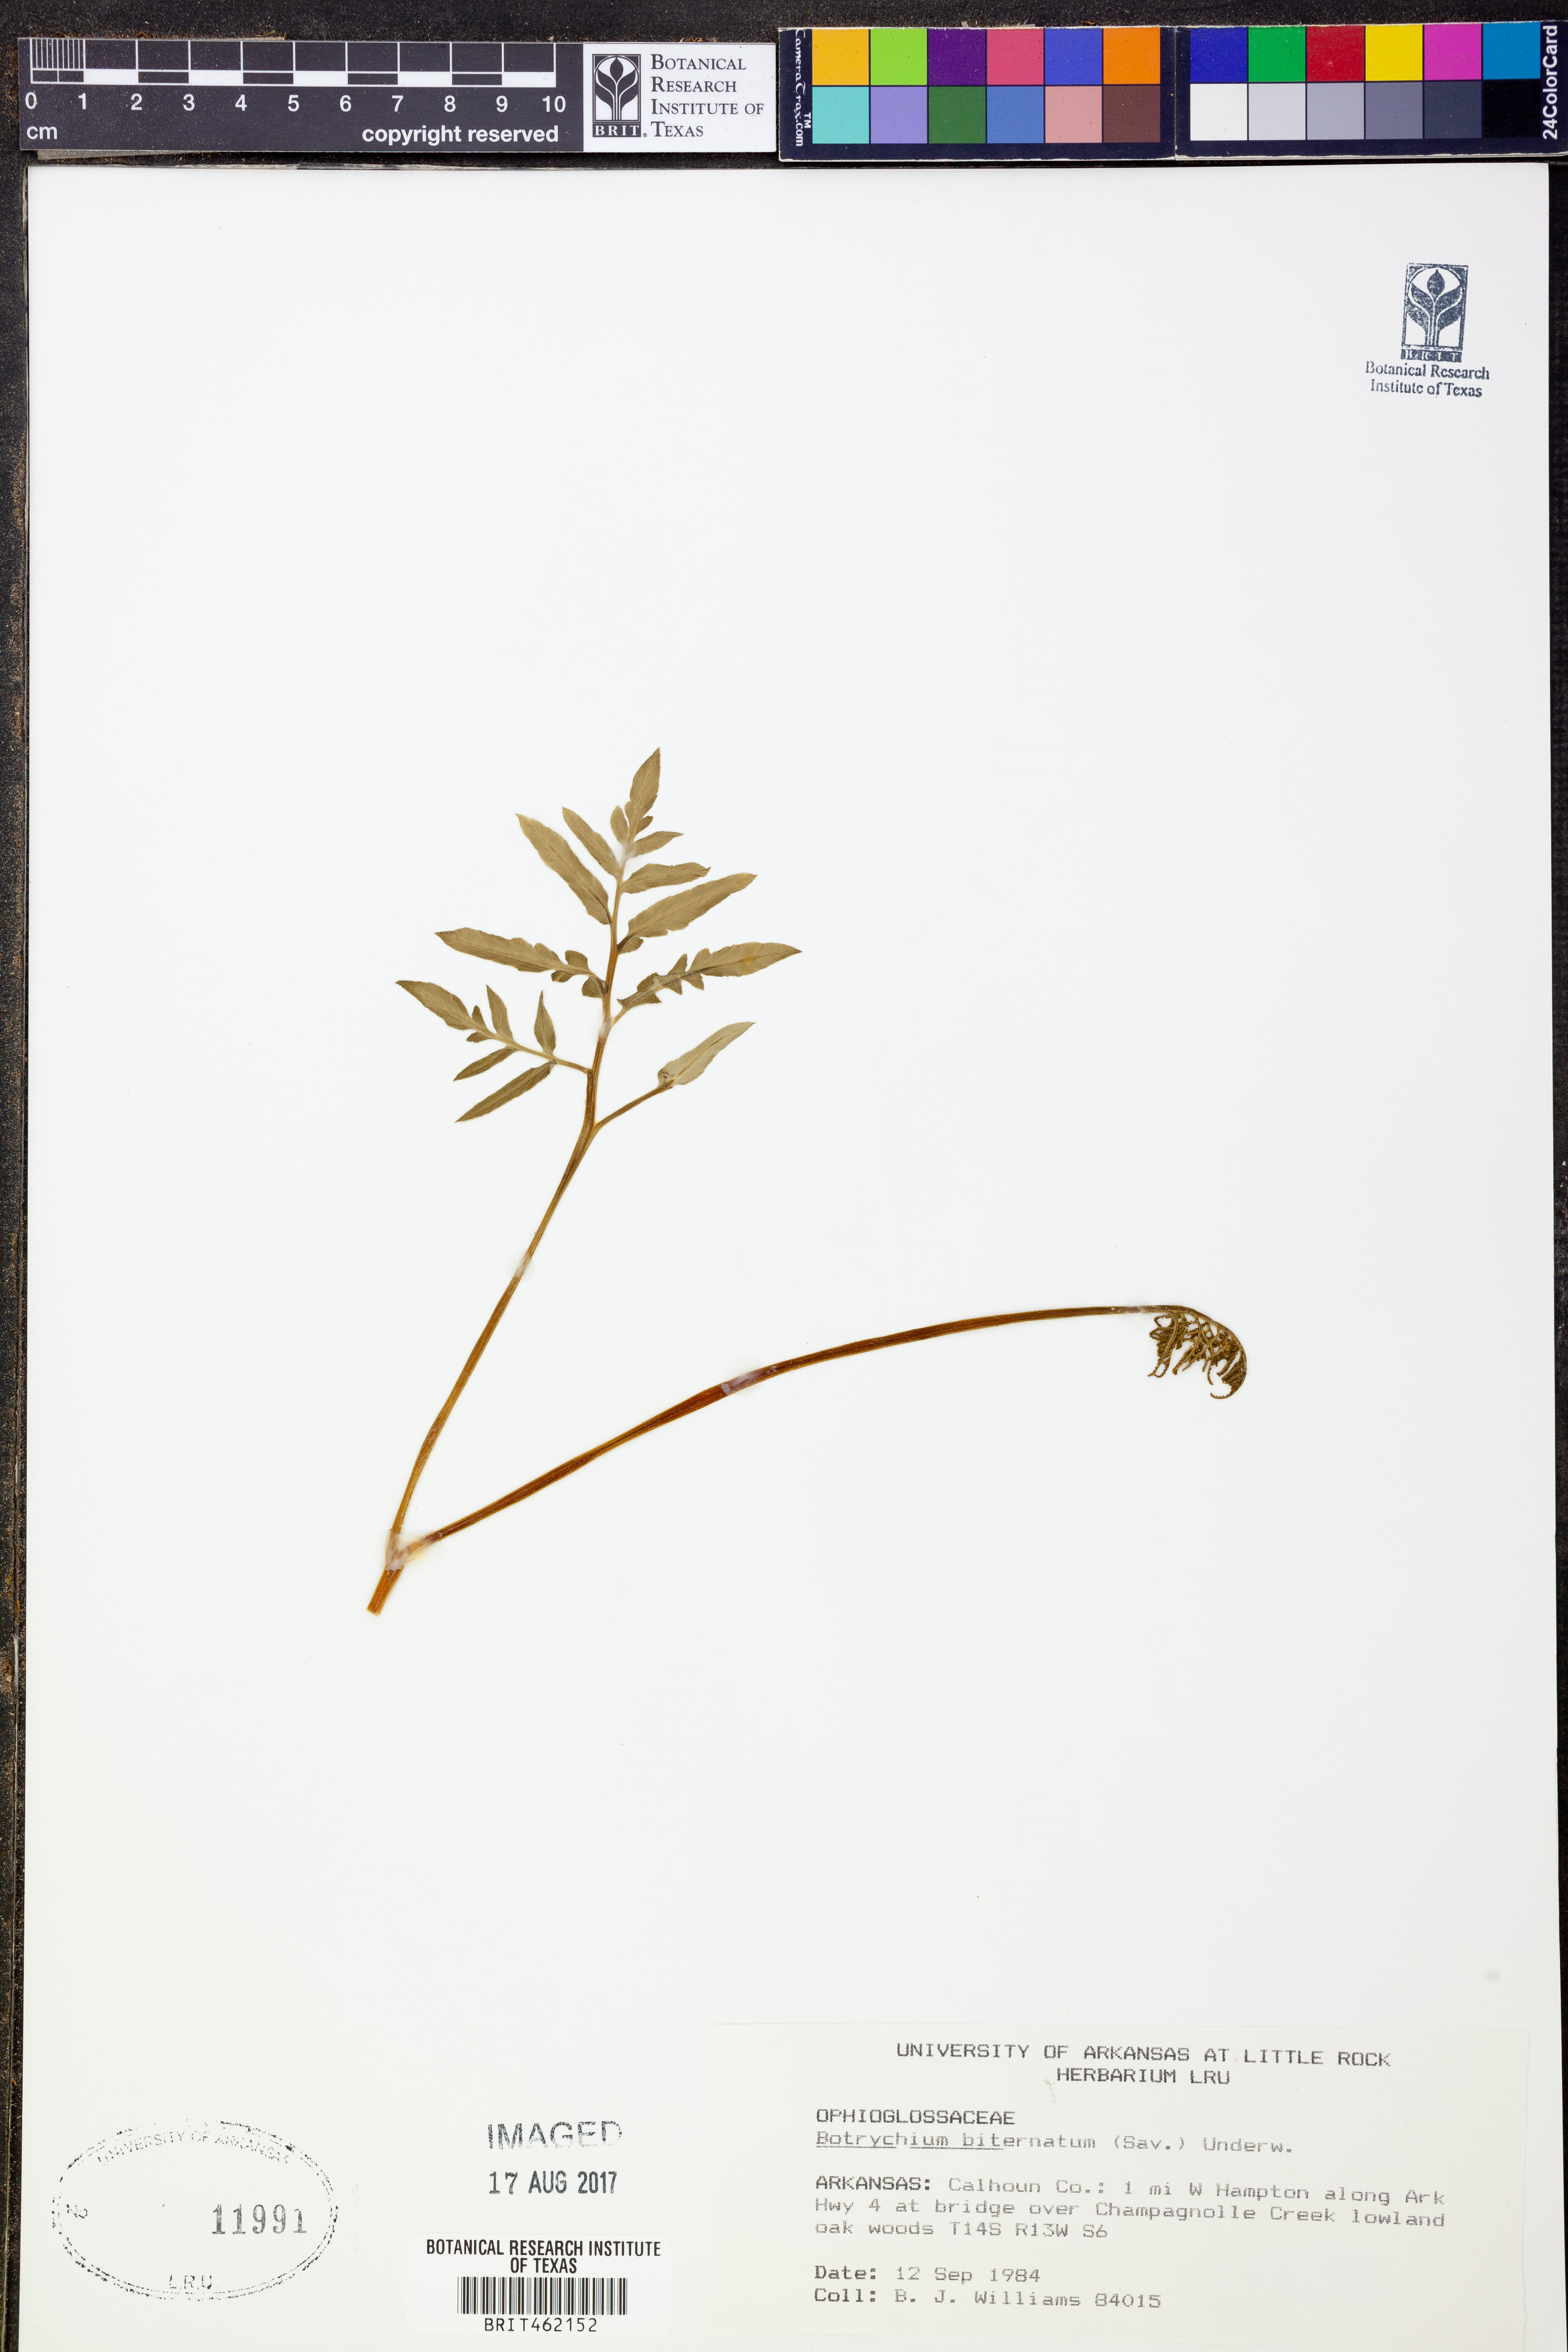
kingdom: Plantae
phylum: Tracheophyta
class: Polypodiopsida
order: Ophioglossales
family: Ophioglossaceae
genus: Sceptridium
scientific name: Sceptridium biternatum
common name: Sparse-lobed grapefern
